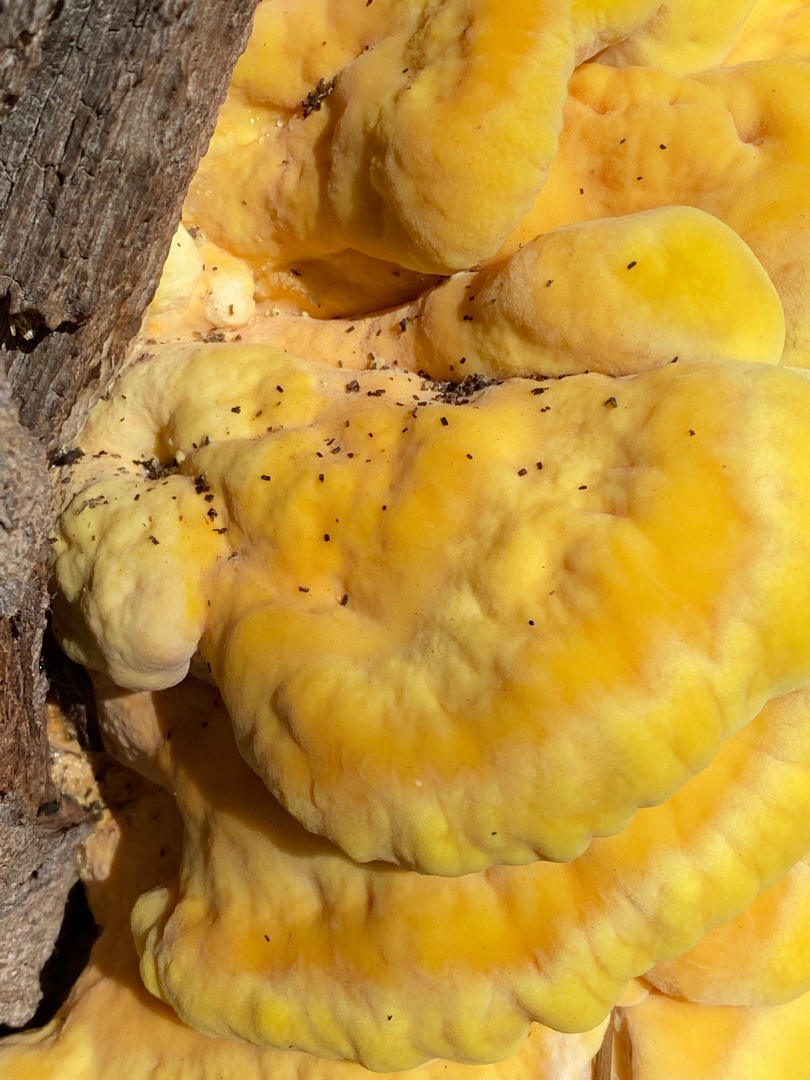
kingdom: Fungi
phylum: Basidiomycota
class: Agaricomycetes
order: Polyporales
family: Laetiporaceae
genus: Laetiporus
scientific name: Laetiporus sulphureus
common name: Svovlporesvamp
